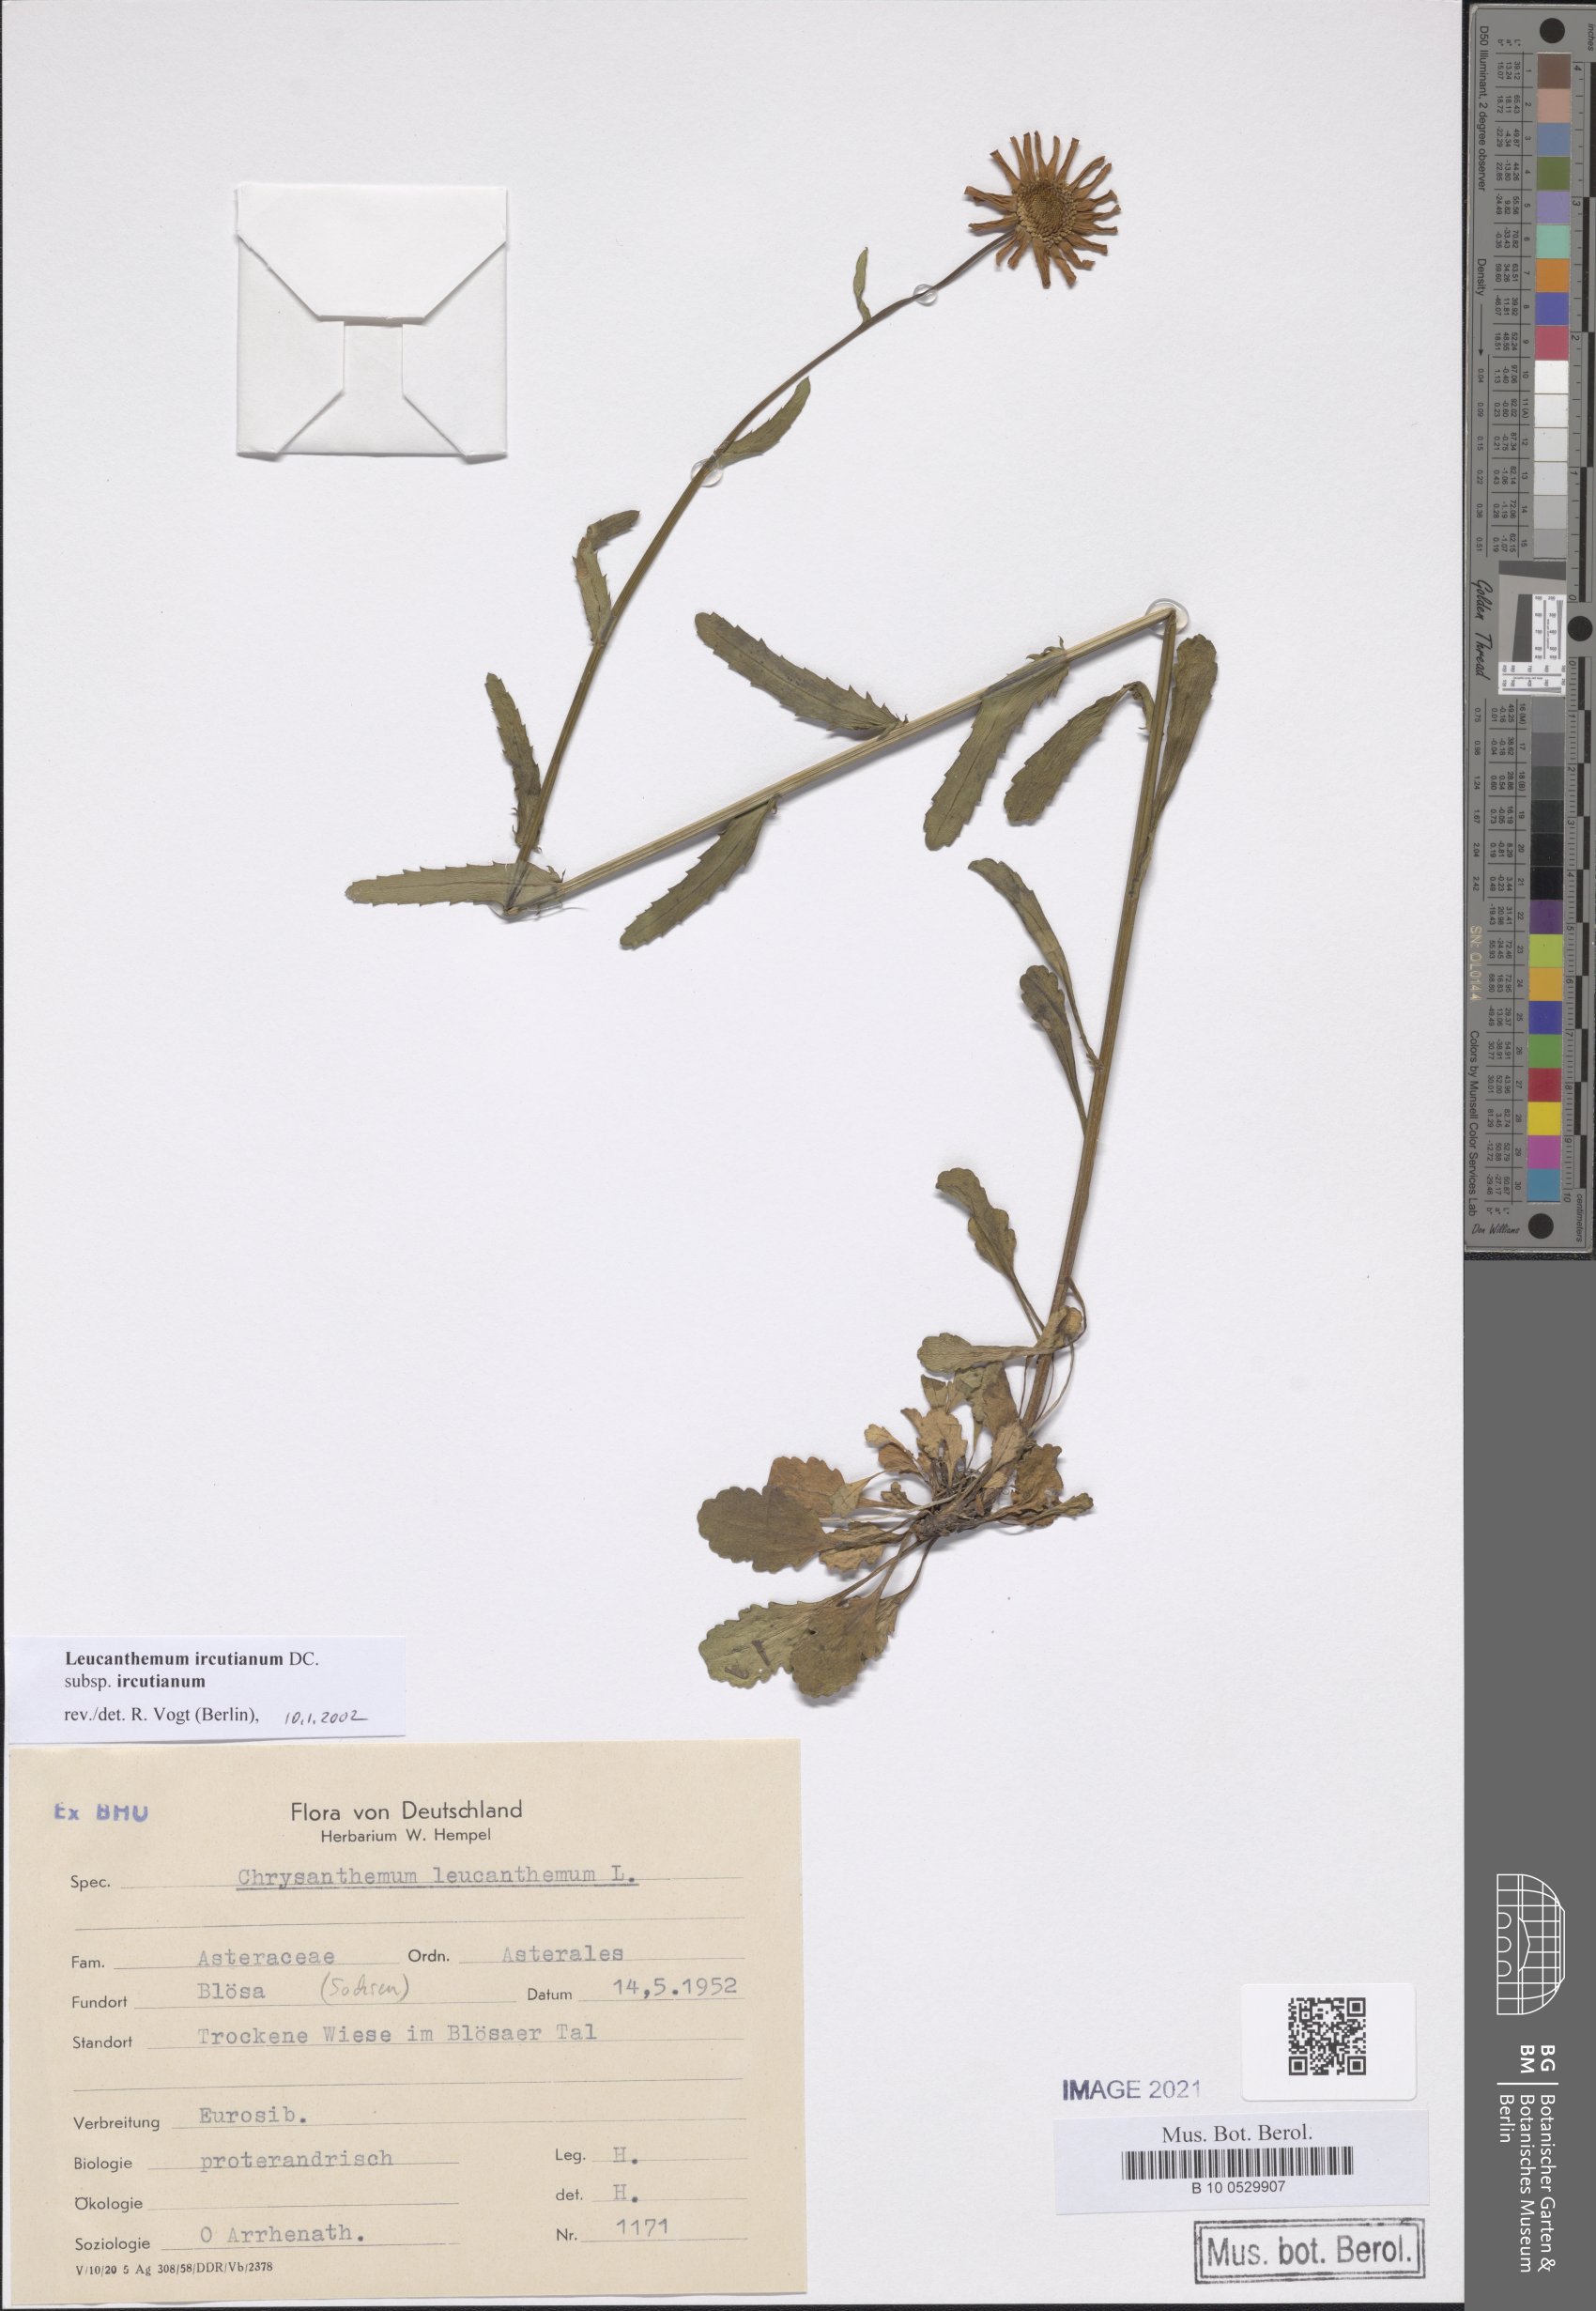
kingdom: Plantae
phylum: Tracheophyta
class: Magnoliopsida
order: Asterales
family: Asteraceae
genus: Leucanthemum
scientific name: Leucanthemum ircutianum
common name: Daisy
